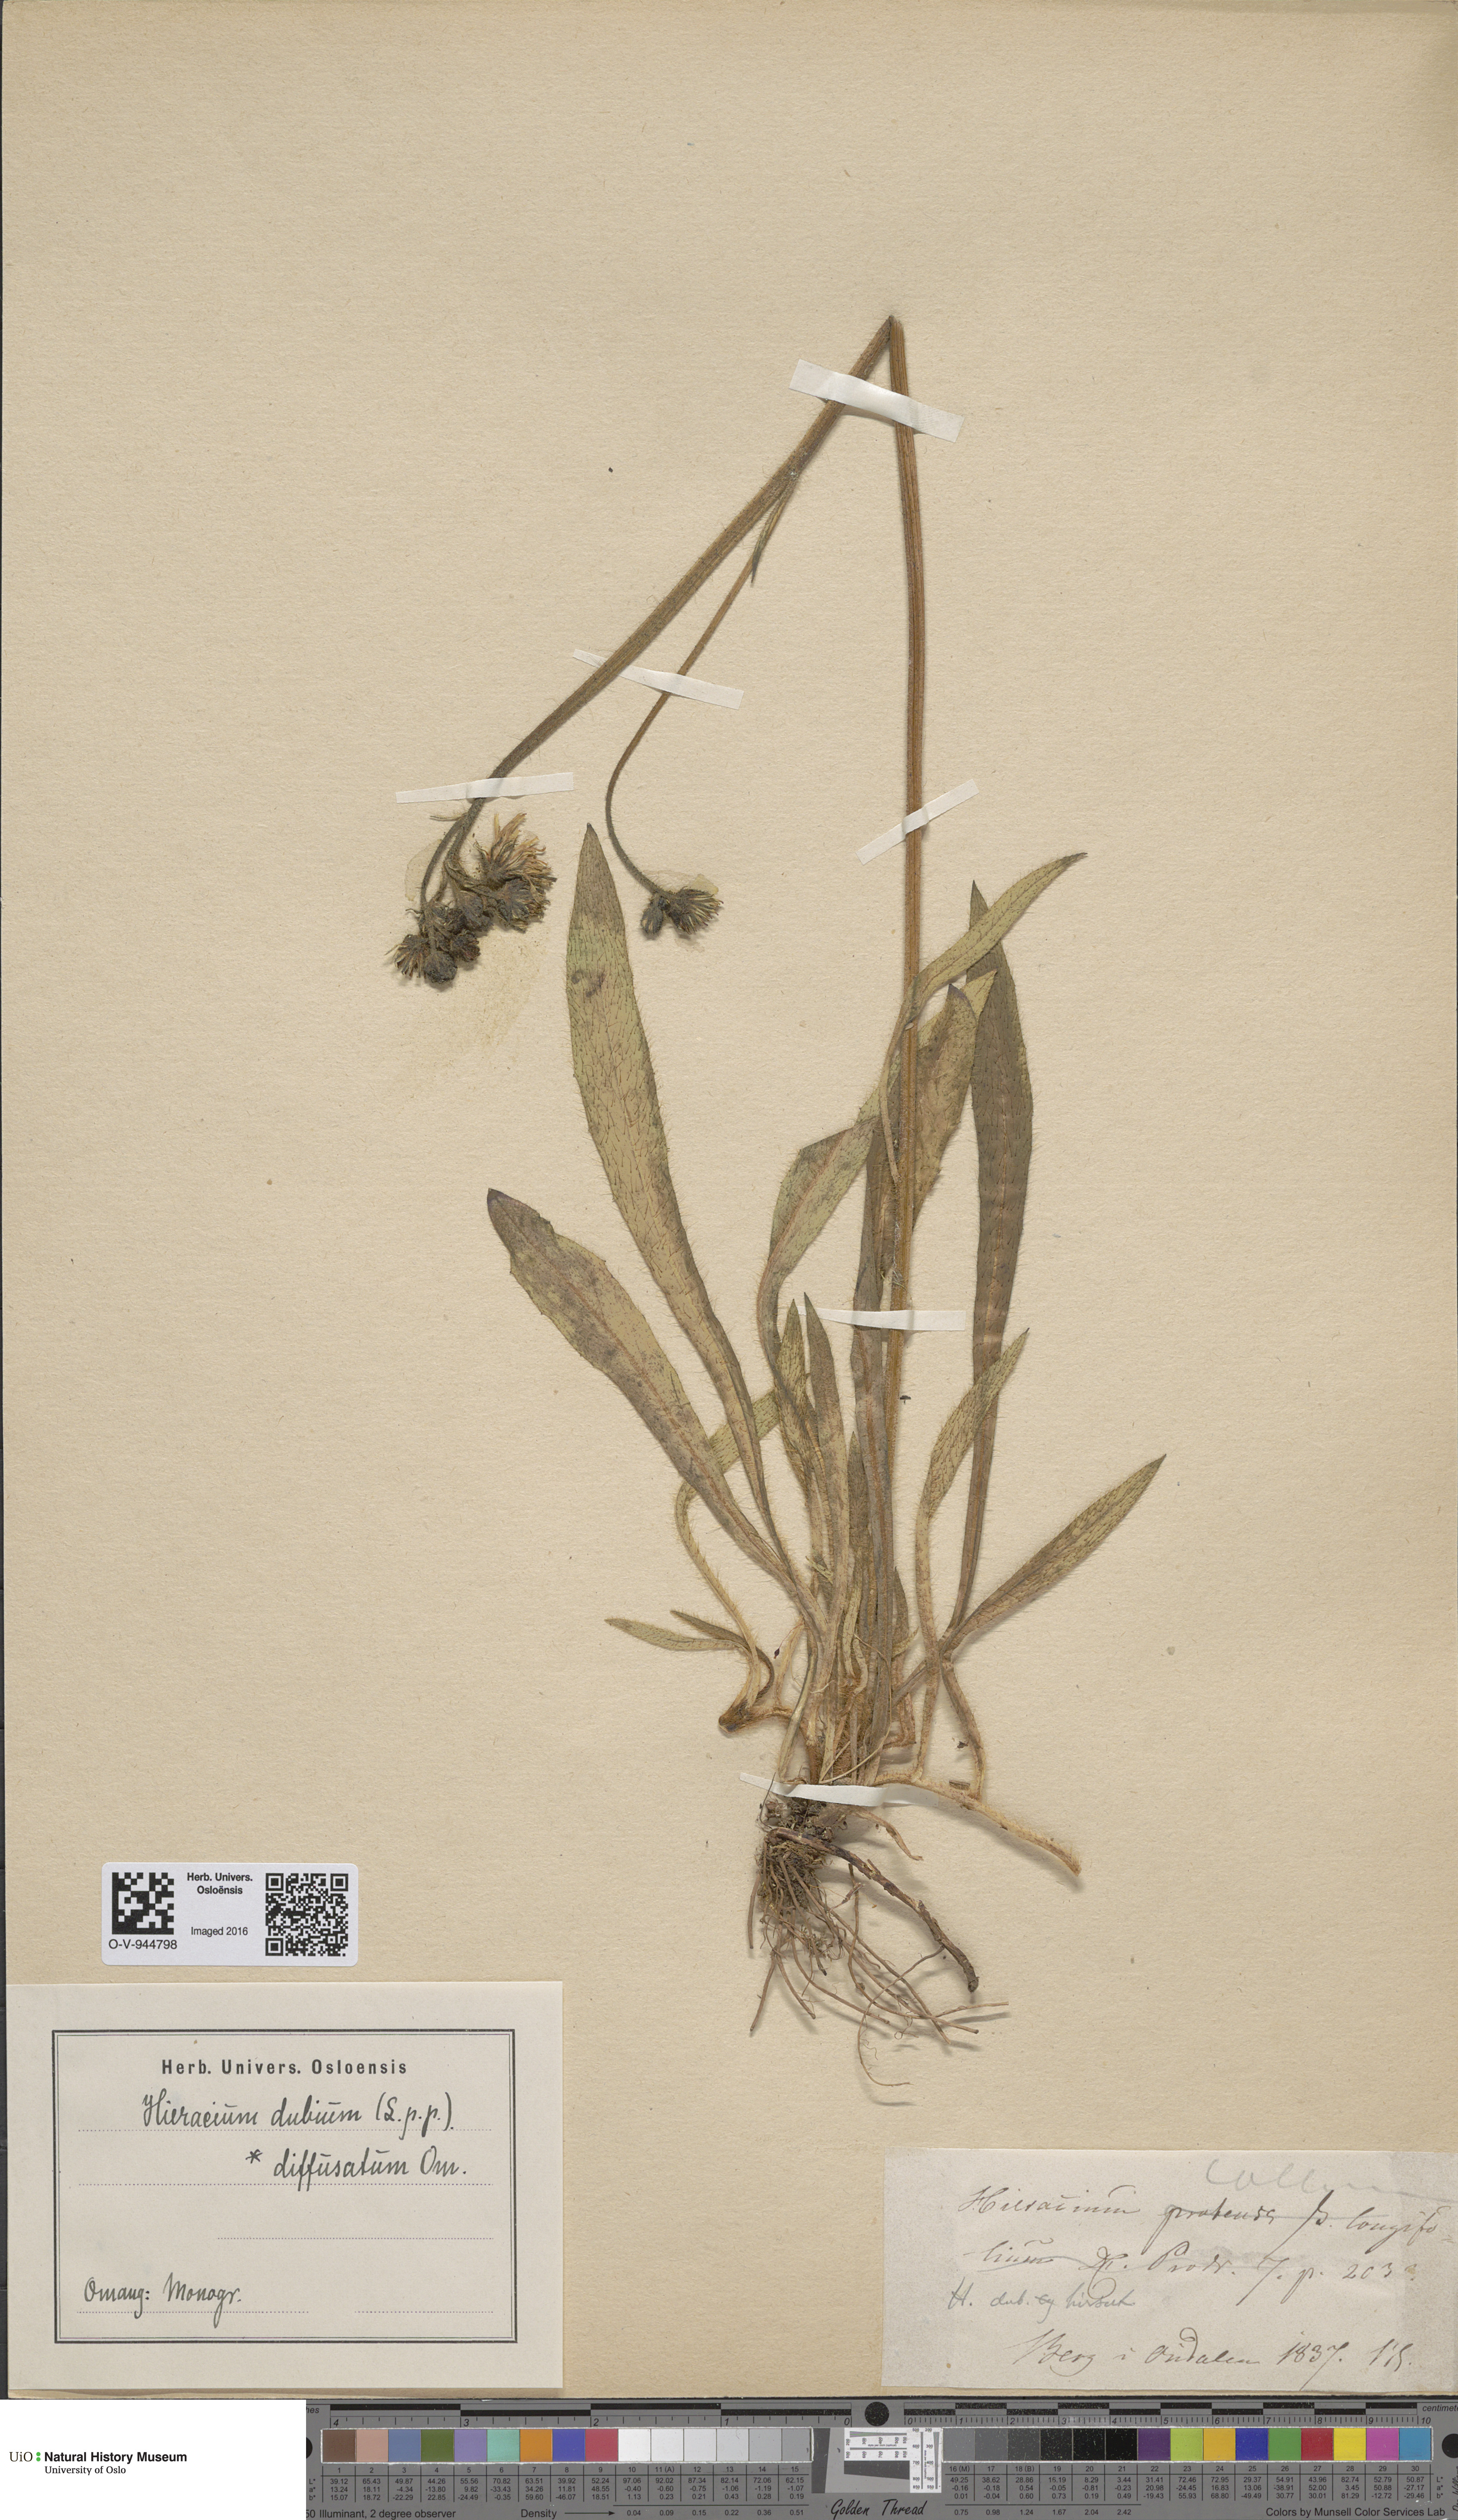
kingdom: Plantae
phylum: Tracheophyta
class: Magnoliopsida
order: Asterales
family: Asteraceae
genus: Pilosella
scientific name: Pilosella dubia
